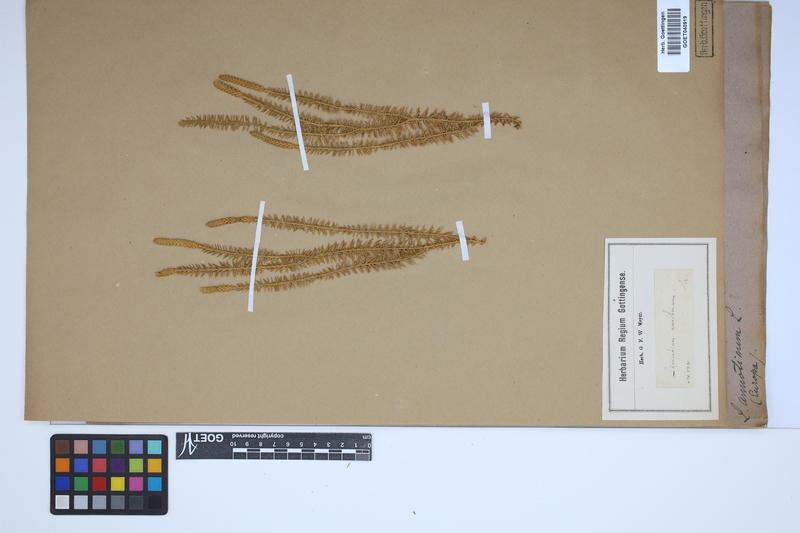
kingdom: Plantae
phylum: Tracheophyta
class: Lycopodiopsida
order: Lycopodiales
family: Lycopodiaceae
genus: Spinulum
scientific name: Spinulum annotinum
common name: Interrupted club-moss
